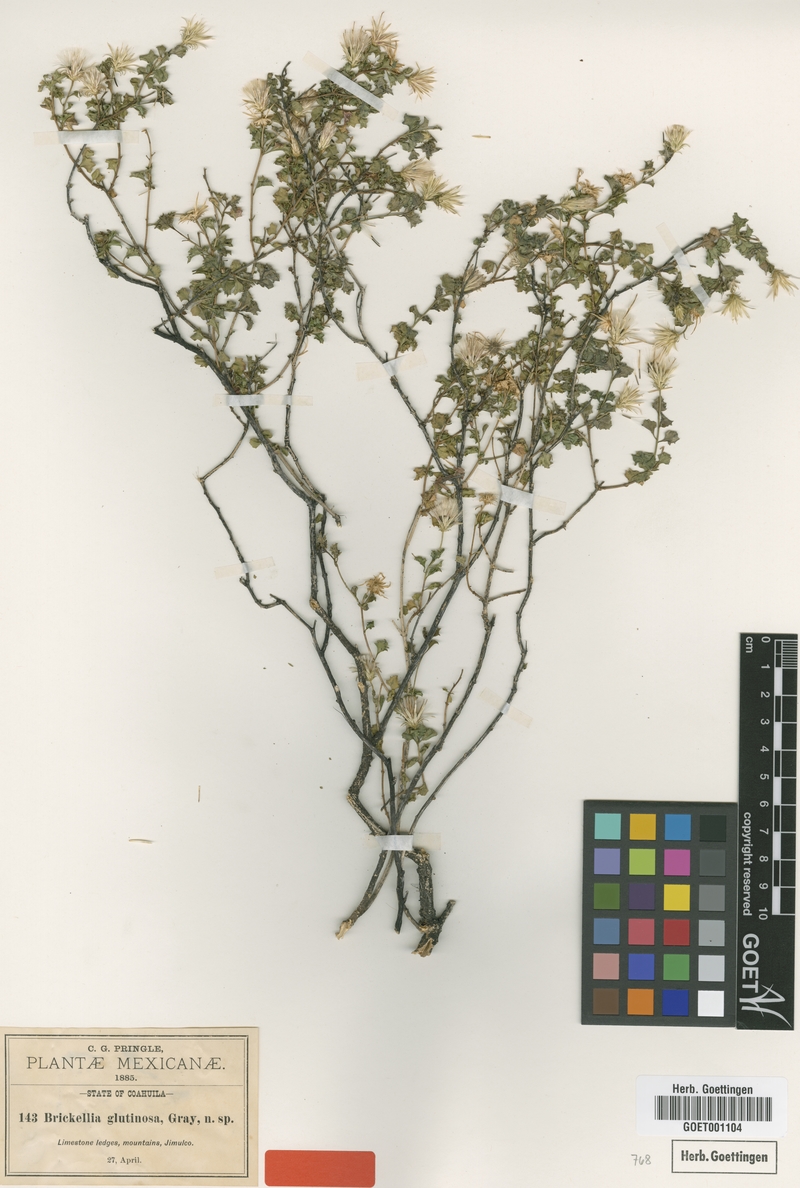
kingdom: Plantae
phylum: Tracheophyta
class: Magnoliopsida
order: Asterales
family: Asteraceae
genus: Brickellia
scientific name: Brickellia glutinosa
